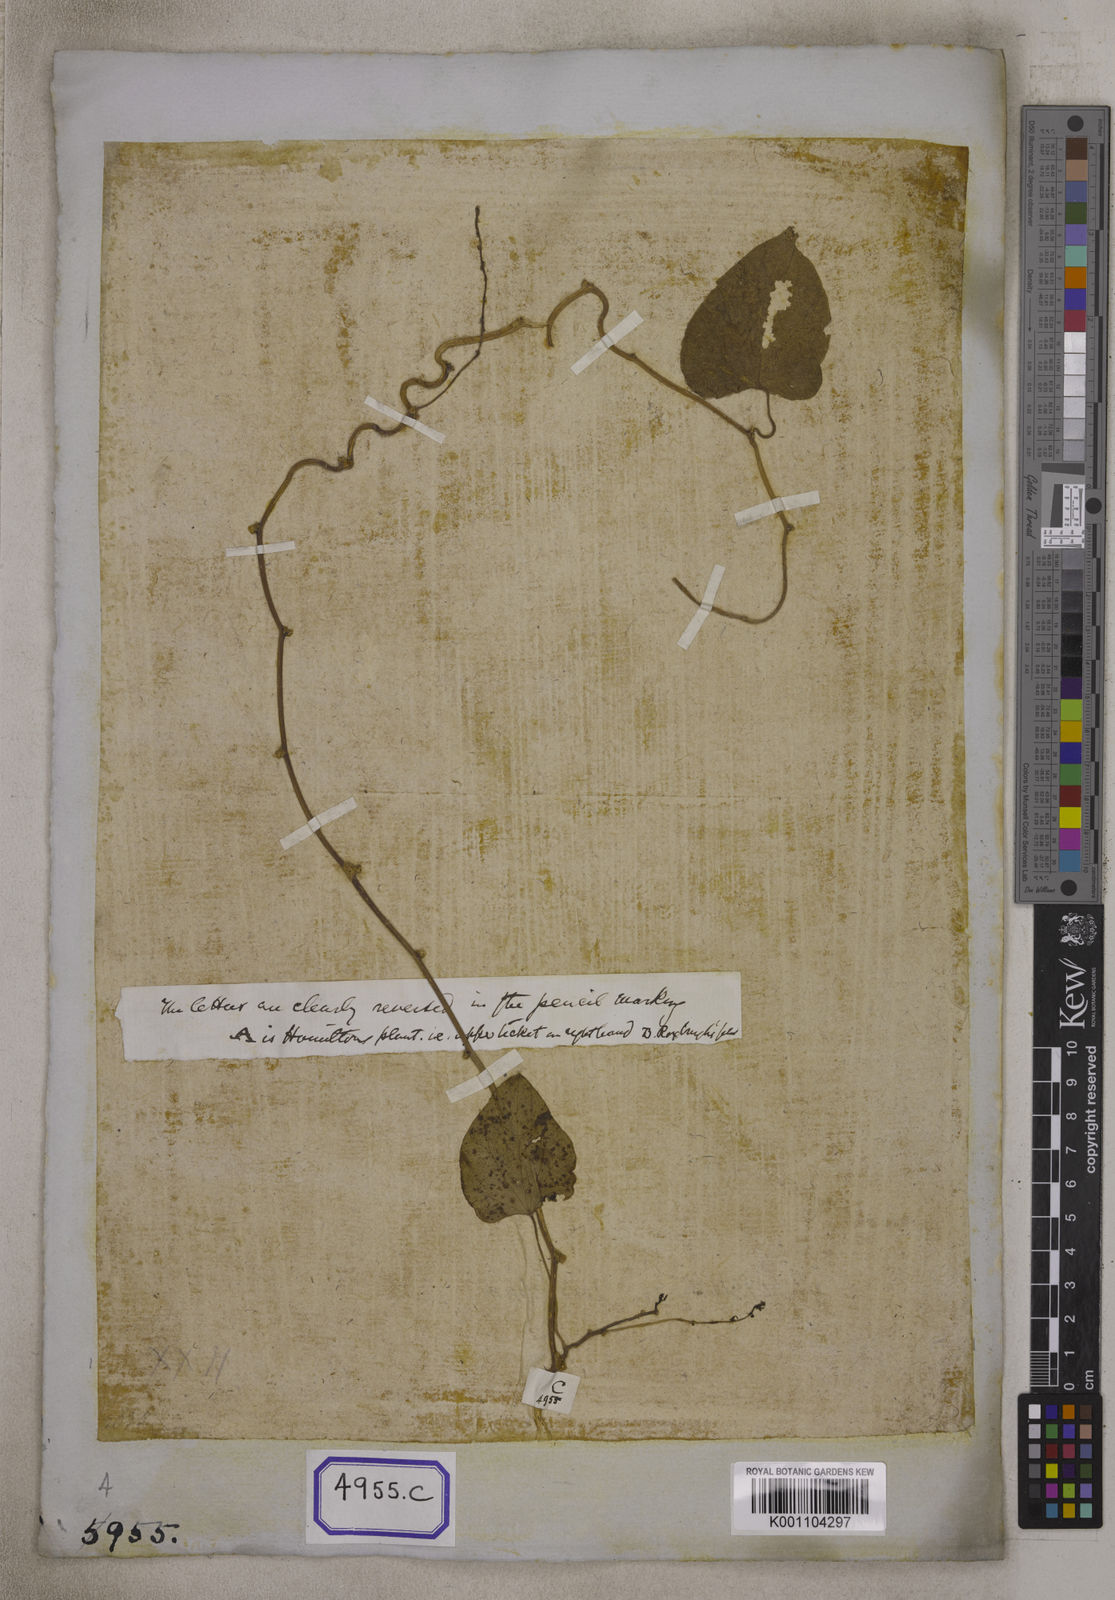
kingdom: Plantae
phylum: Tracheophyta
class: Magnoliopsida
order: Ranunculales
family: Menispermaceae
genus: Tinospora
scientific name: Tinospora glabra
